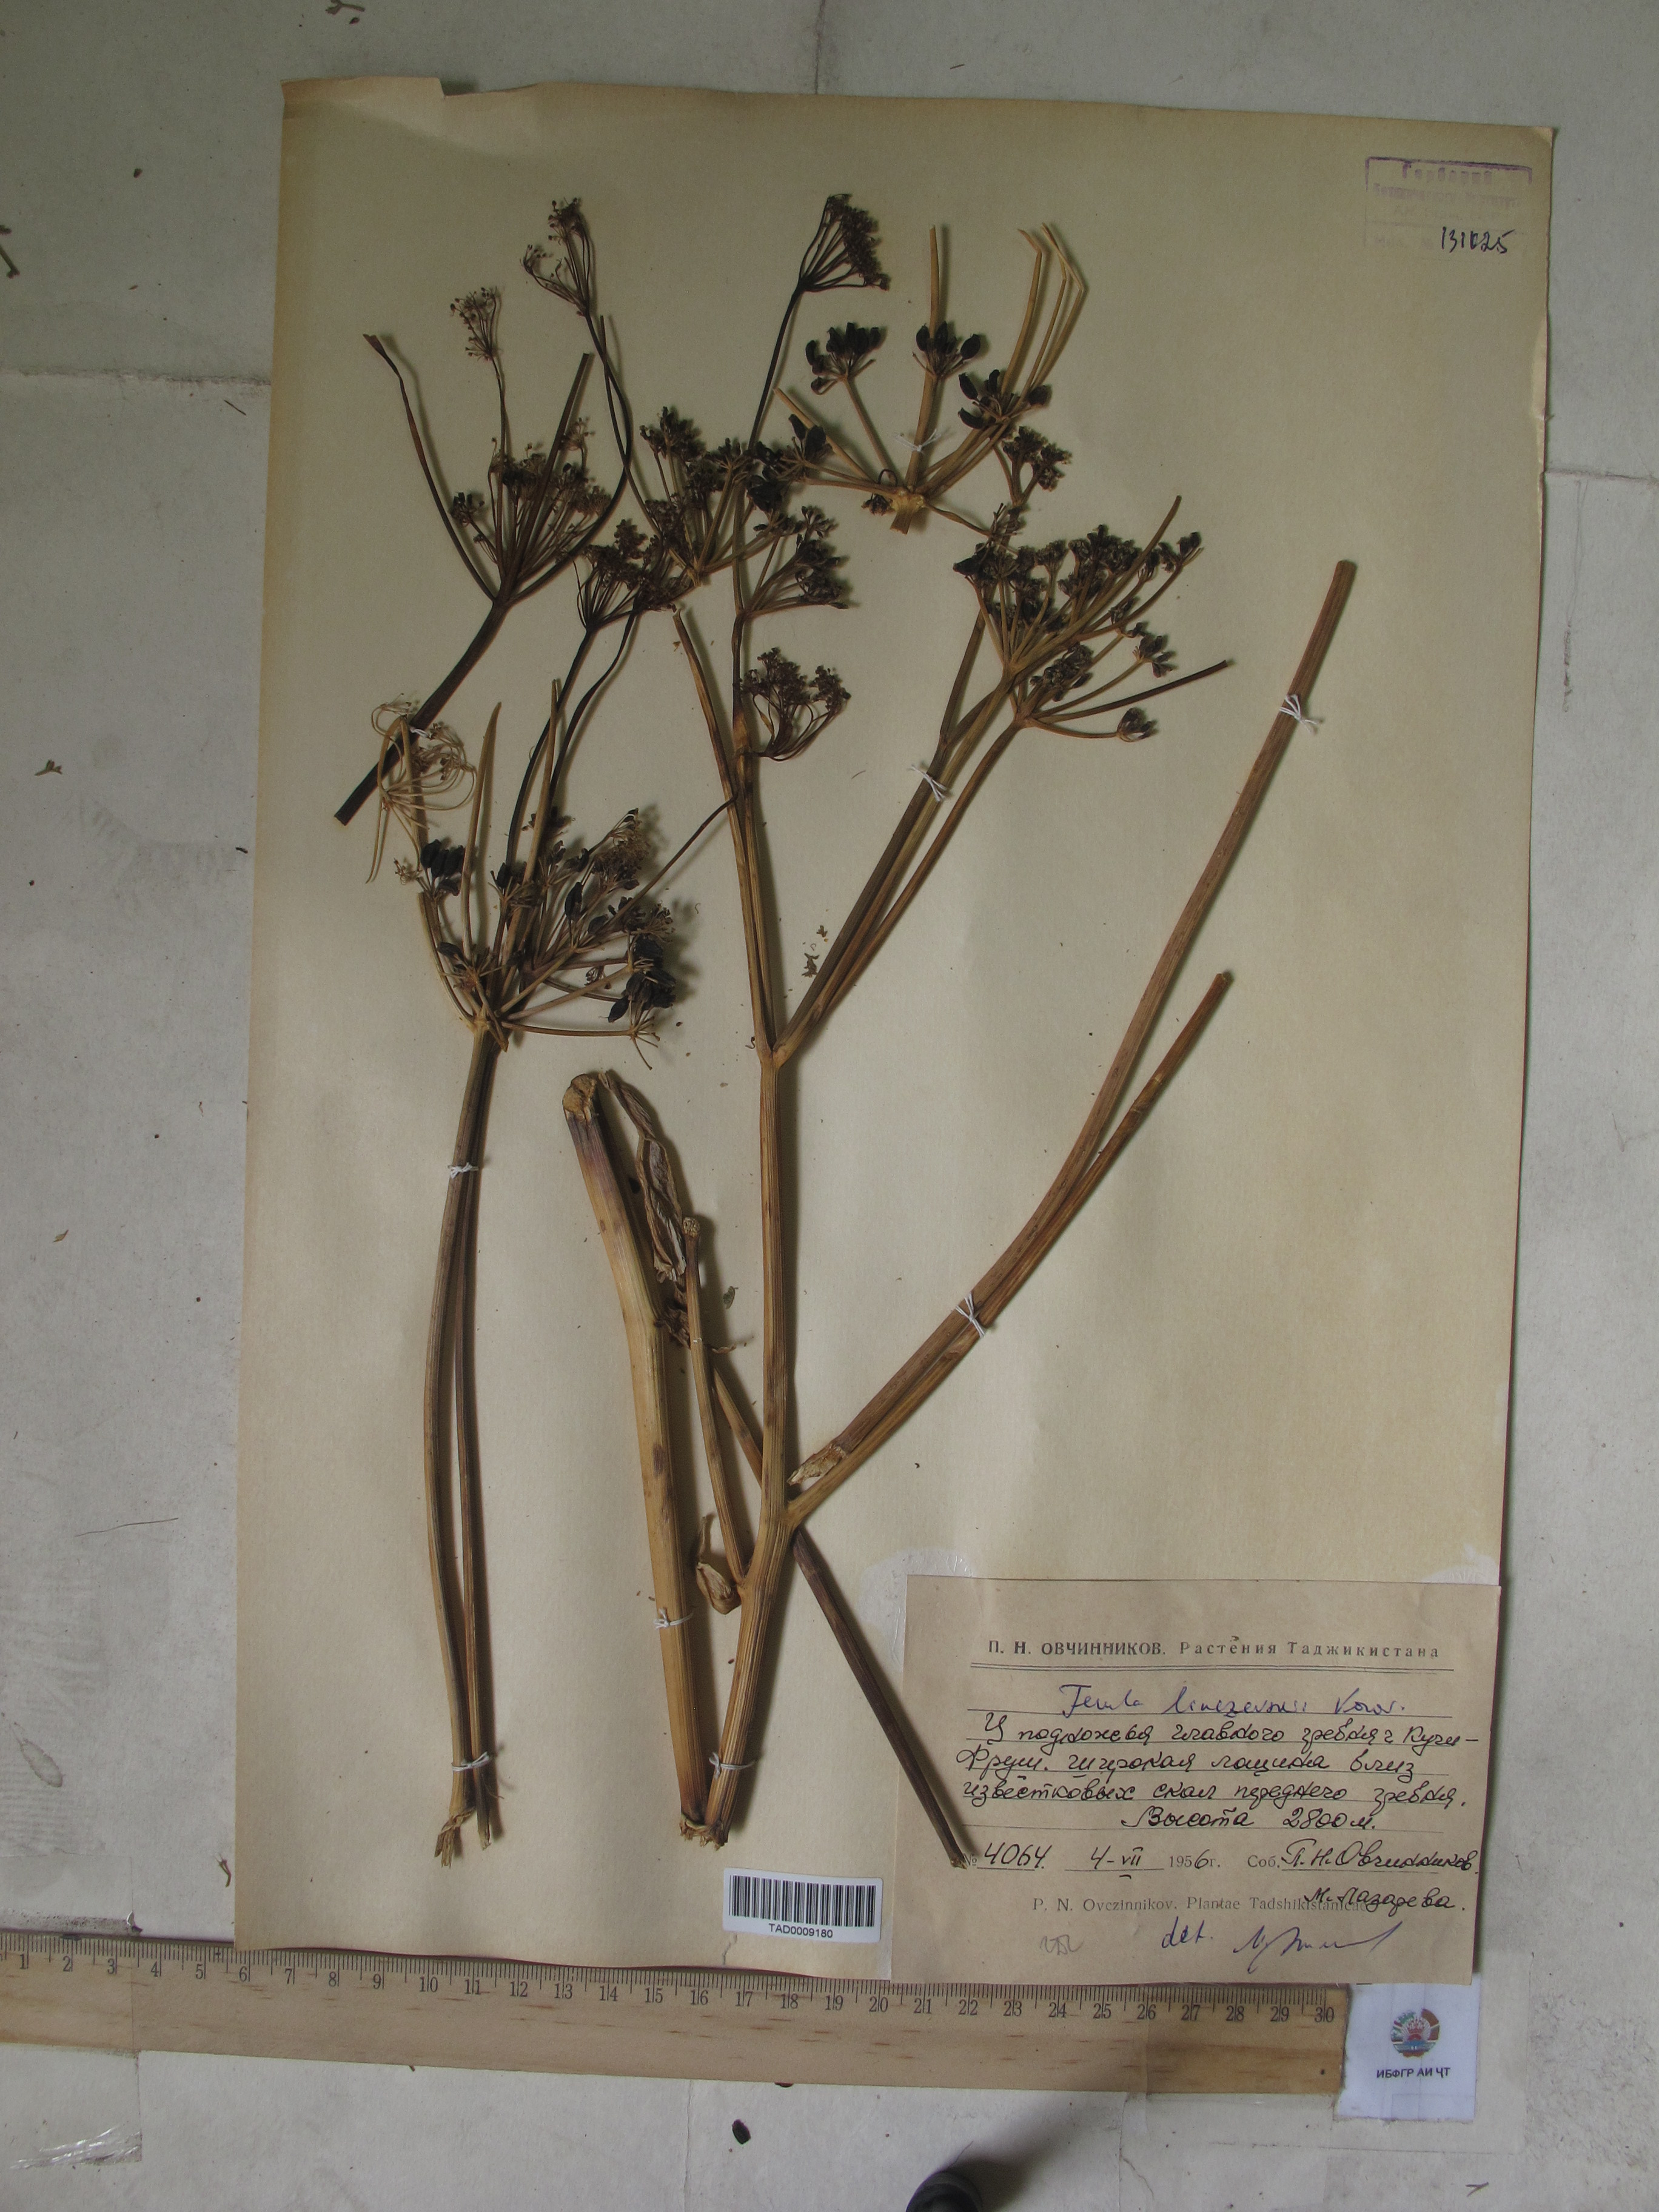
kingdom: Plantae
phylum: Tracheophyta
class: Magnoliopsida
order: Apiales
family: Apiaceae
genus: Ferula
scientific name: Ferula linczevskii
